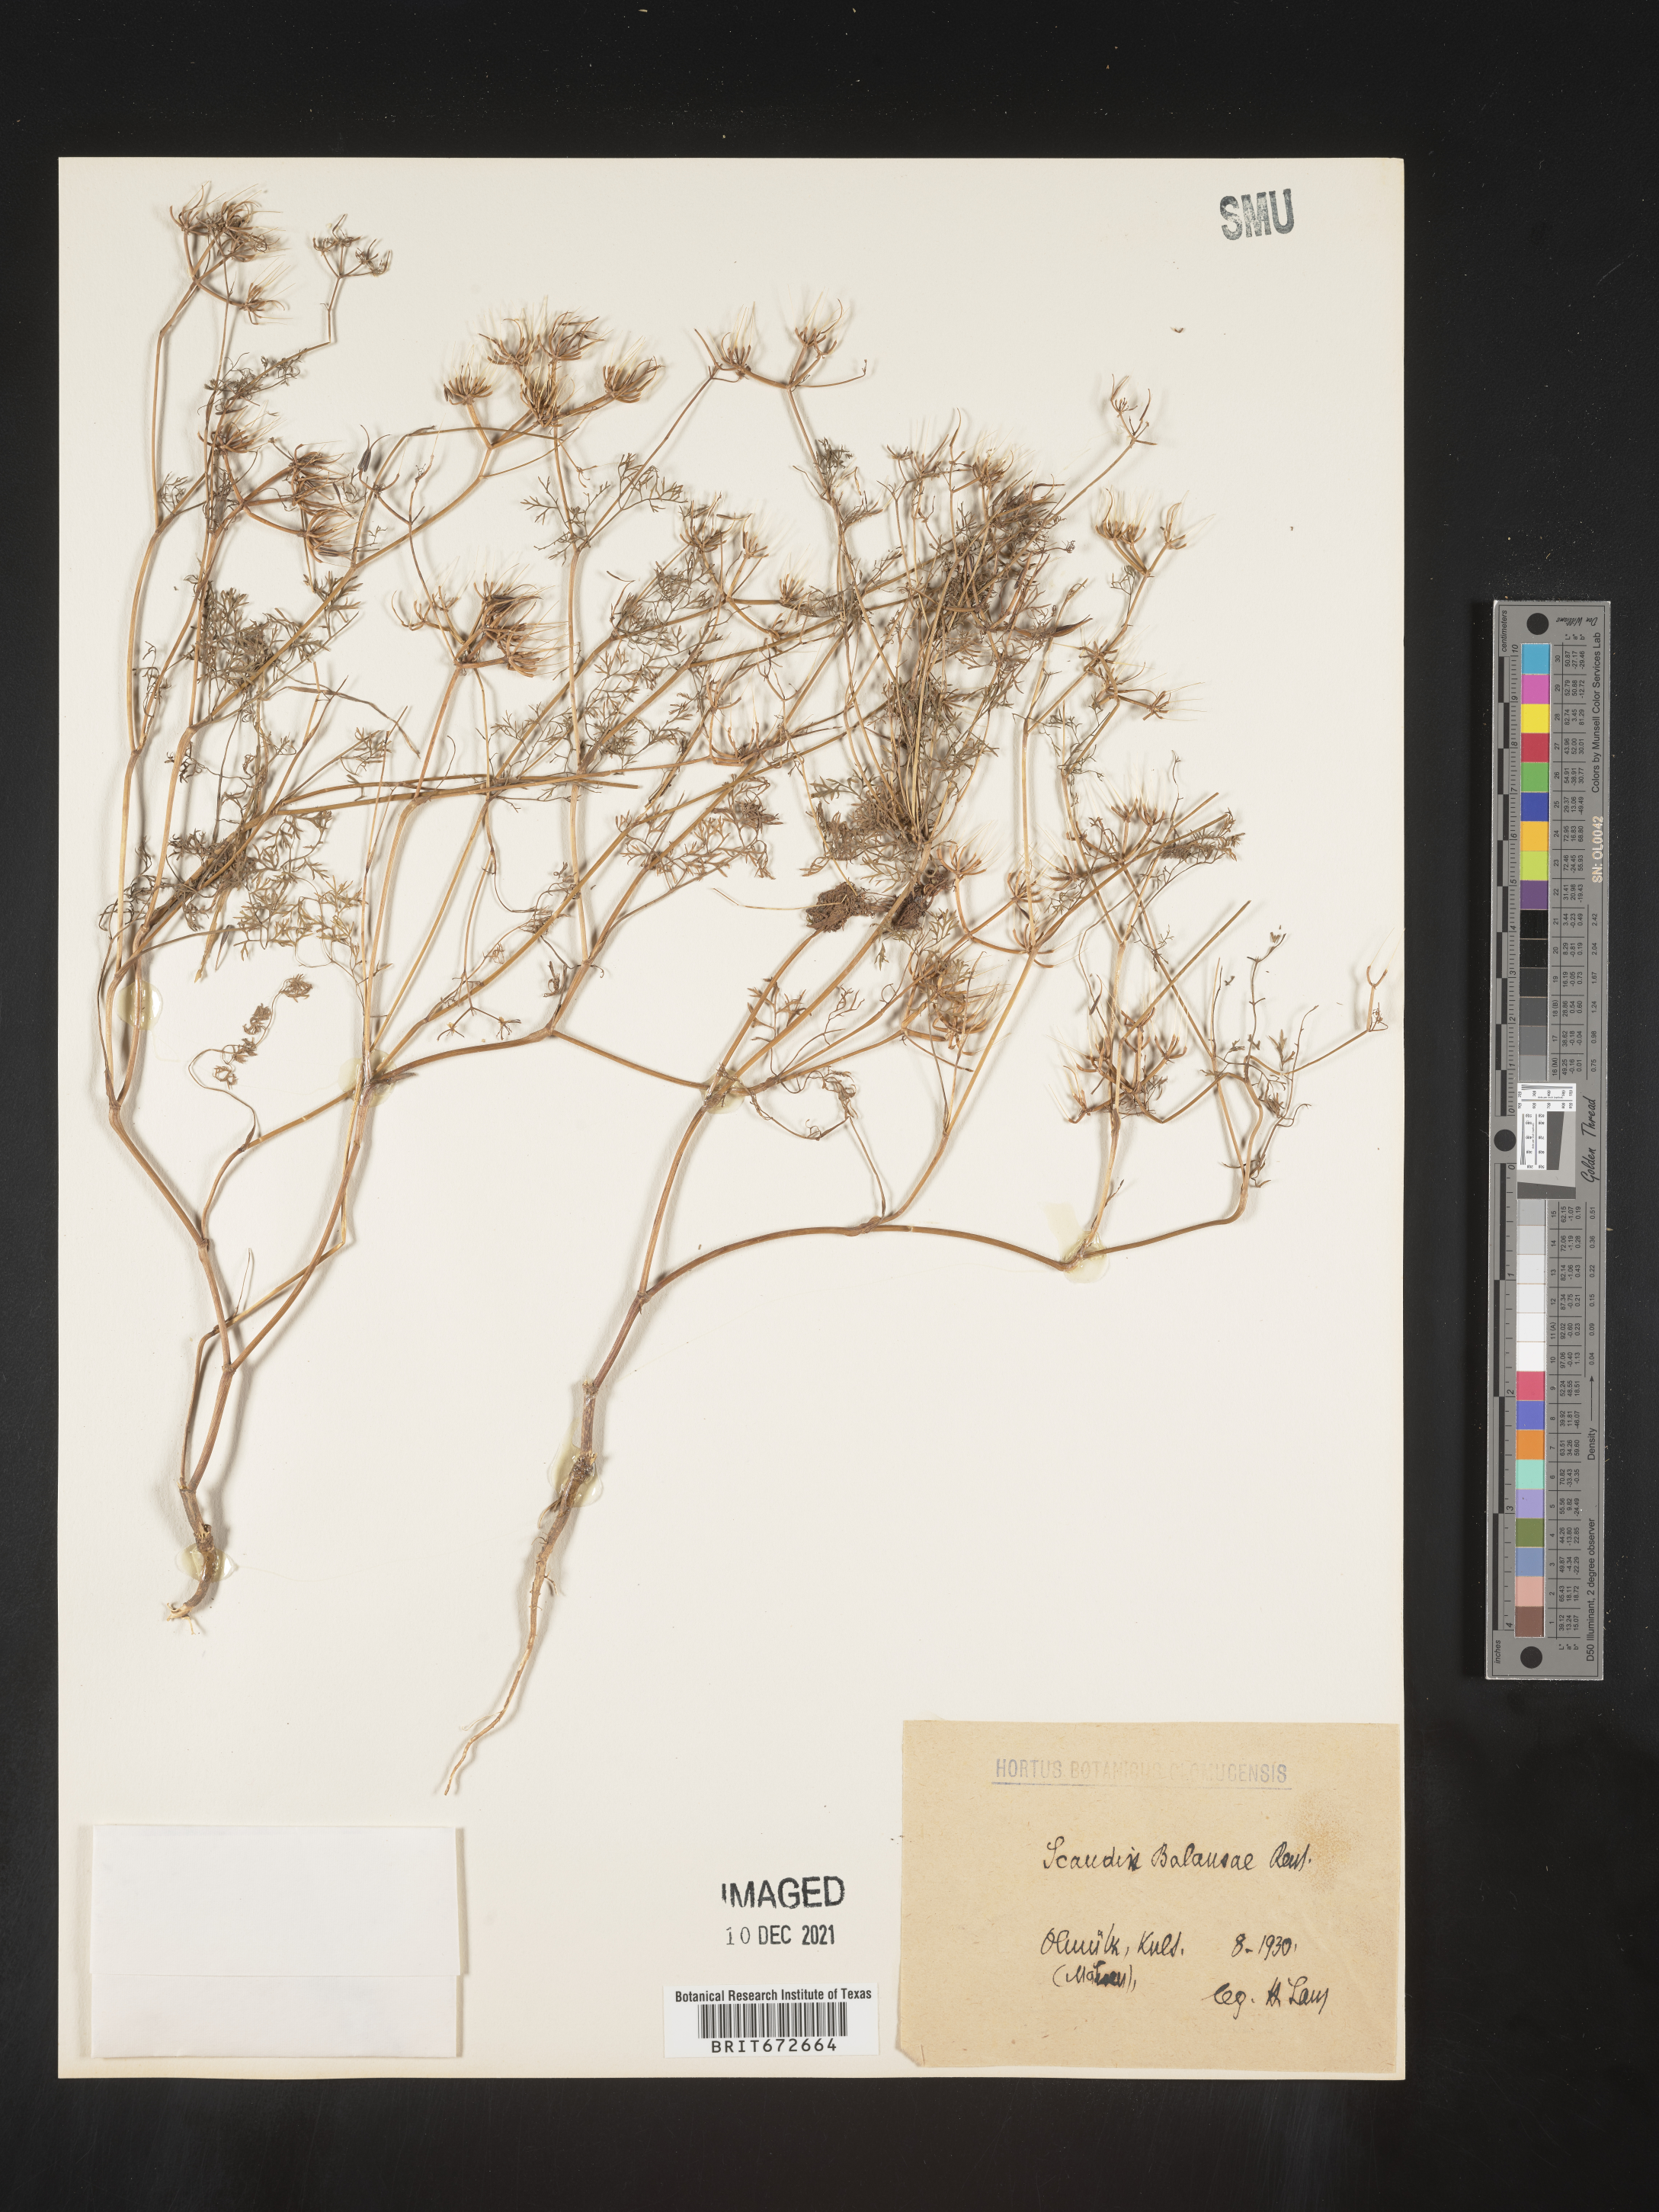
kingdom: Plantae
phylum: Tracheophyta
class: Magnoliopsida
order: Apiales
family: Apiaceae
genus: Scandix
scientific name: Scandix
